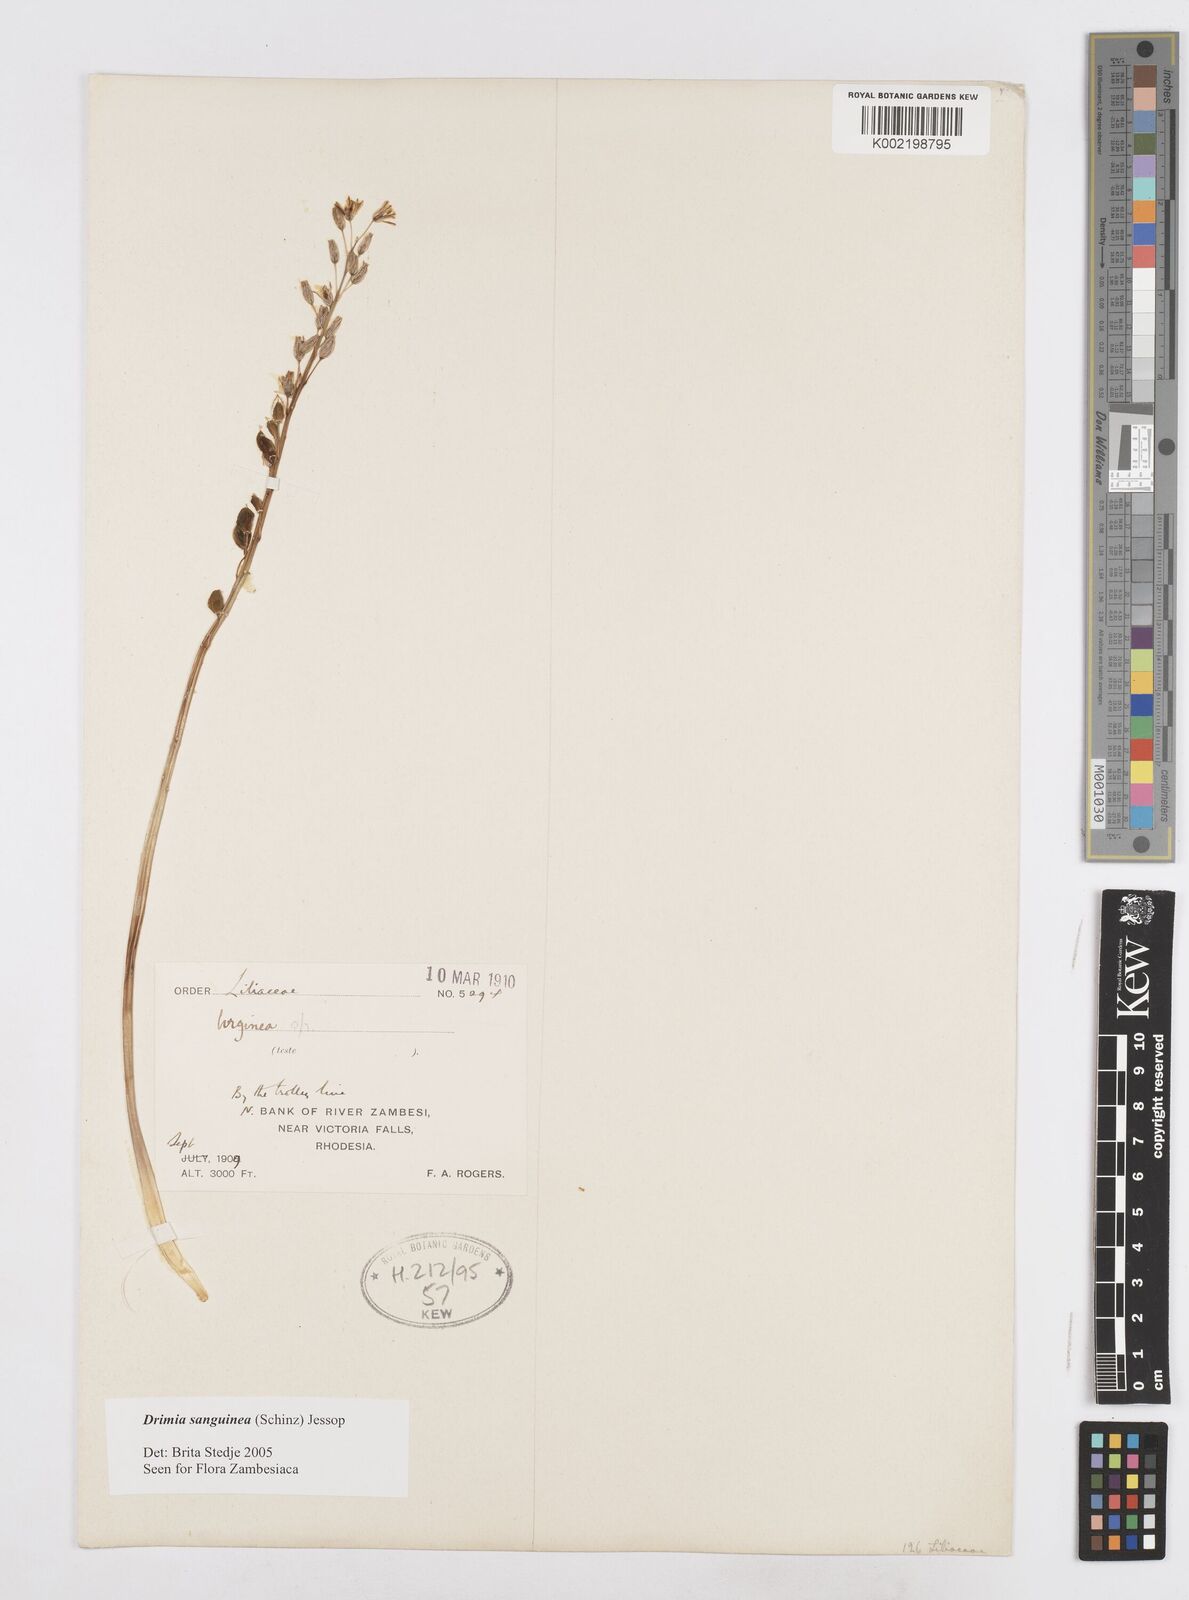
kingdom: Plantae
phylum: Tracheophyta
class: Liliopsida
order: Asparagales
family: Asparagaceae
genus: Drimia
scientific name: Drimia sanguinea
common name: Transvaal slangkop
